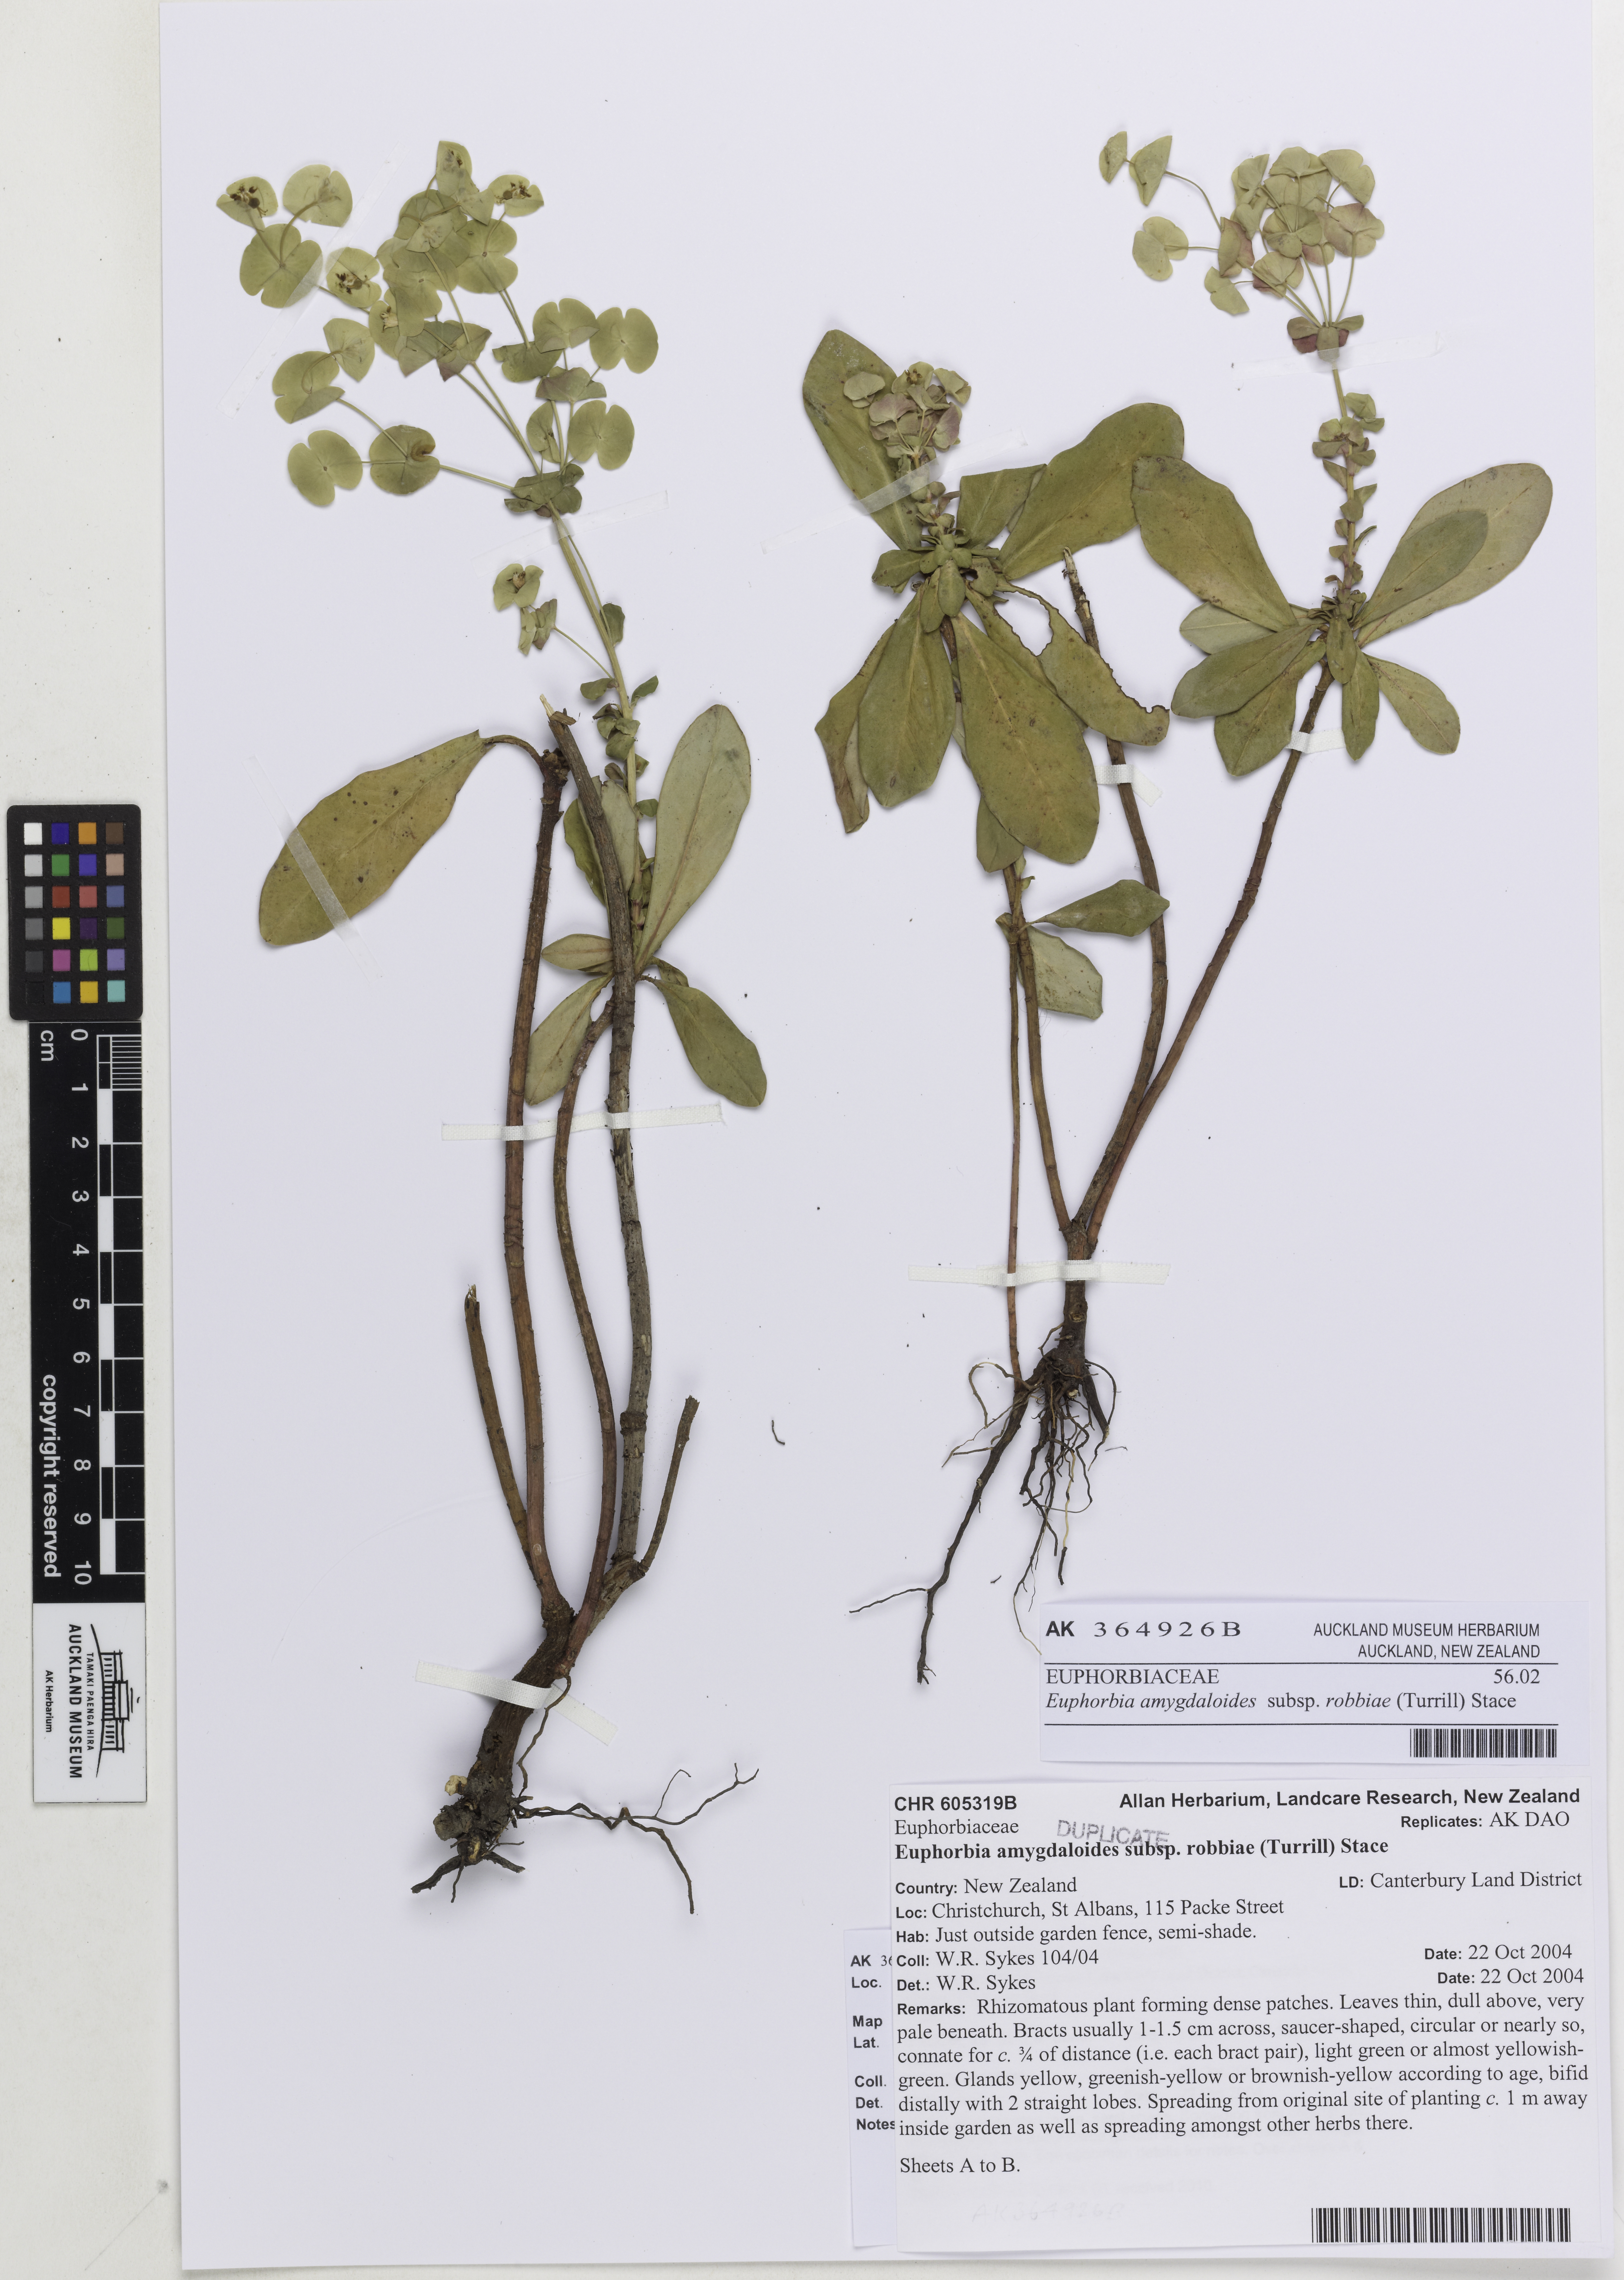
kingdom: Plantae
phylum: Tracheophyta
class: Magnoliopsida
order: Malpighiales
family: Euphorbiaceae
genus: Euphorbia
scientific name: Euphorbia amygdaloides
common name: Wood spurge
